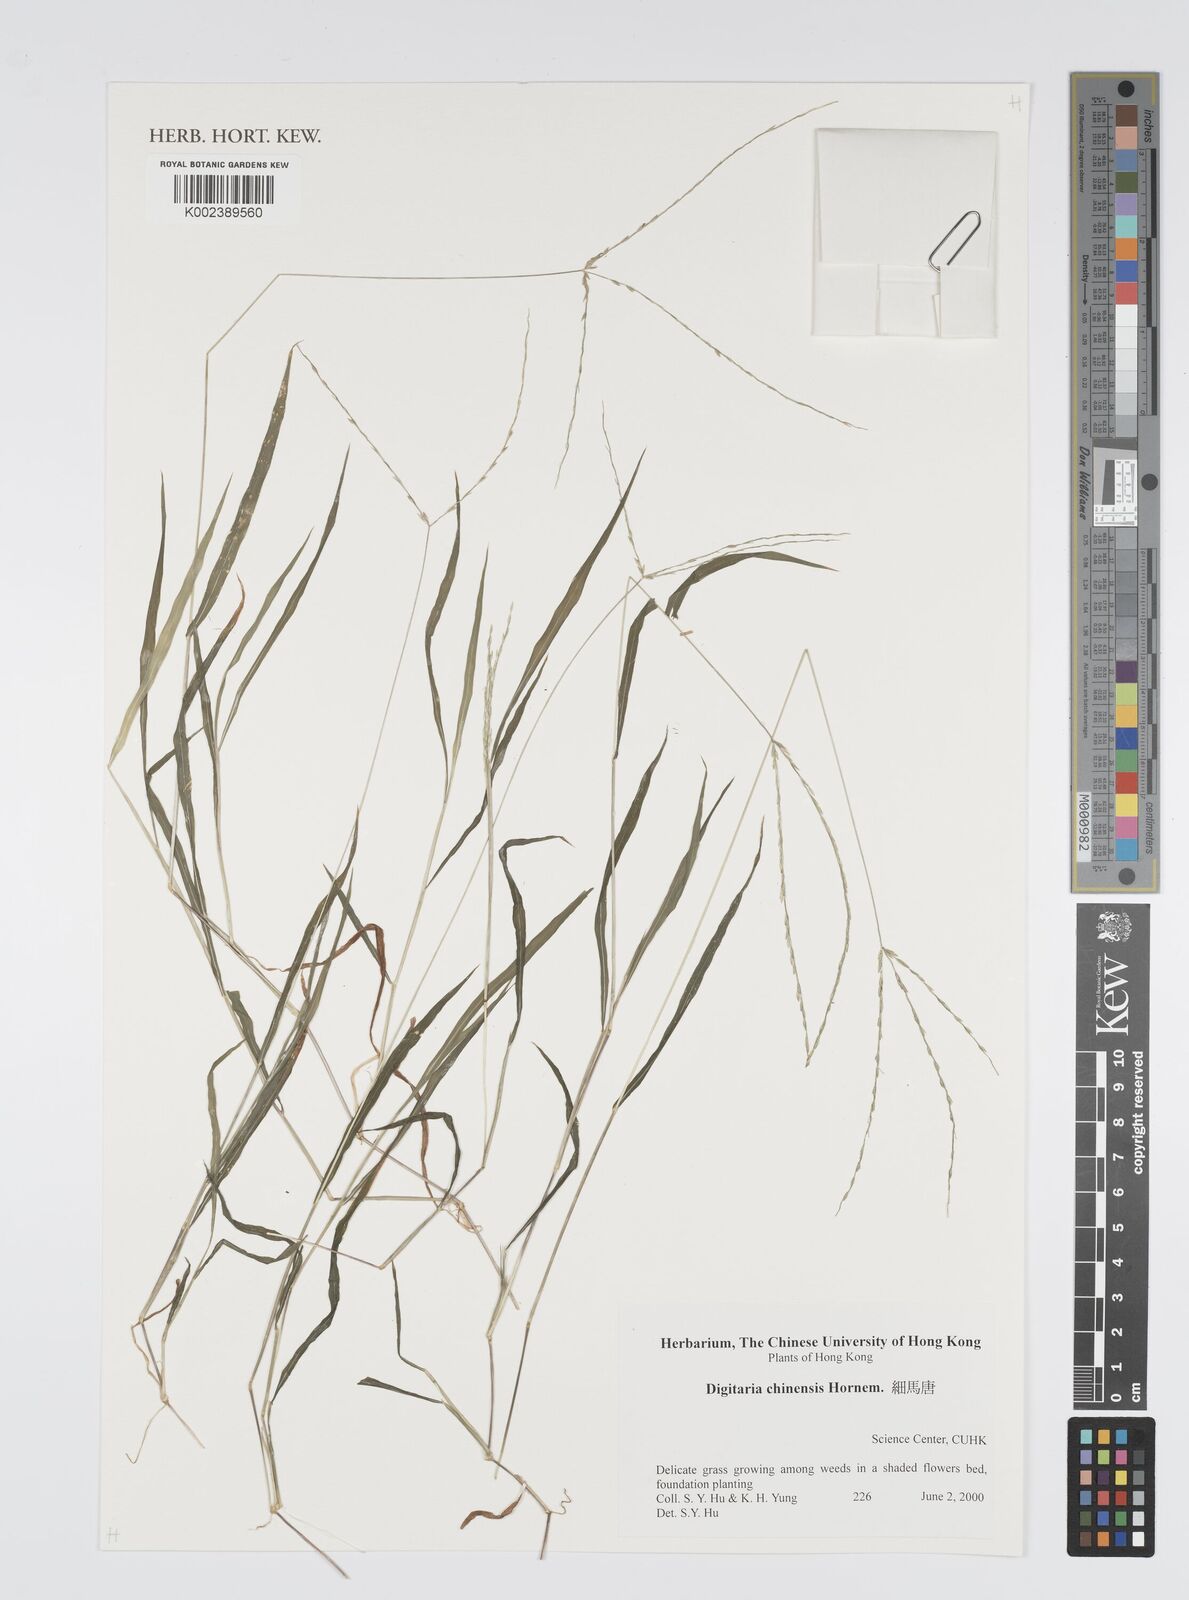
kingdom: Plantae
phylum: Tracheophyta
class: Liliopsida
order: Poales
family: Poaceae
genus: Digitaria
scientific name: Digitaria ciliaris
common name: Tropical finger-grass
